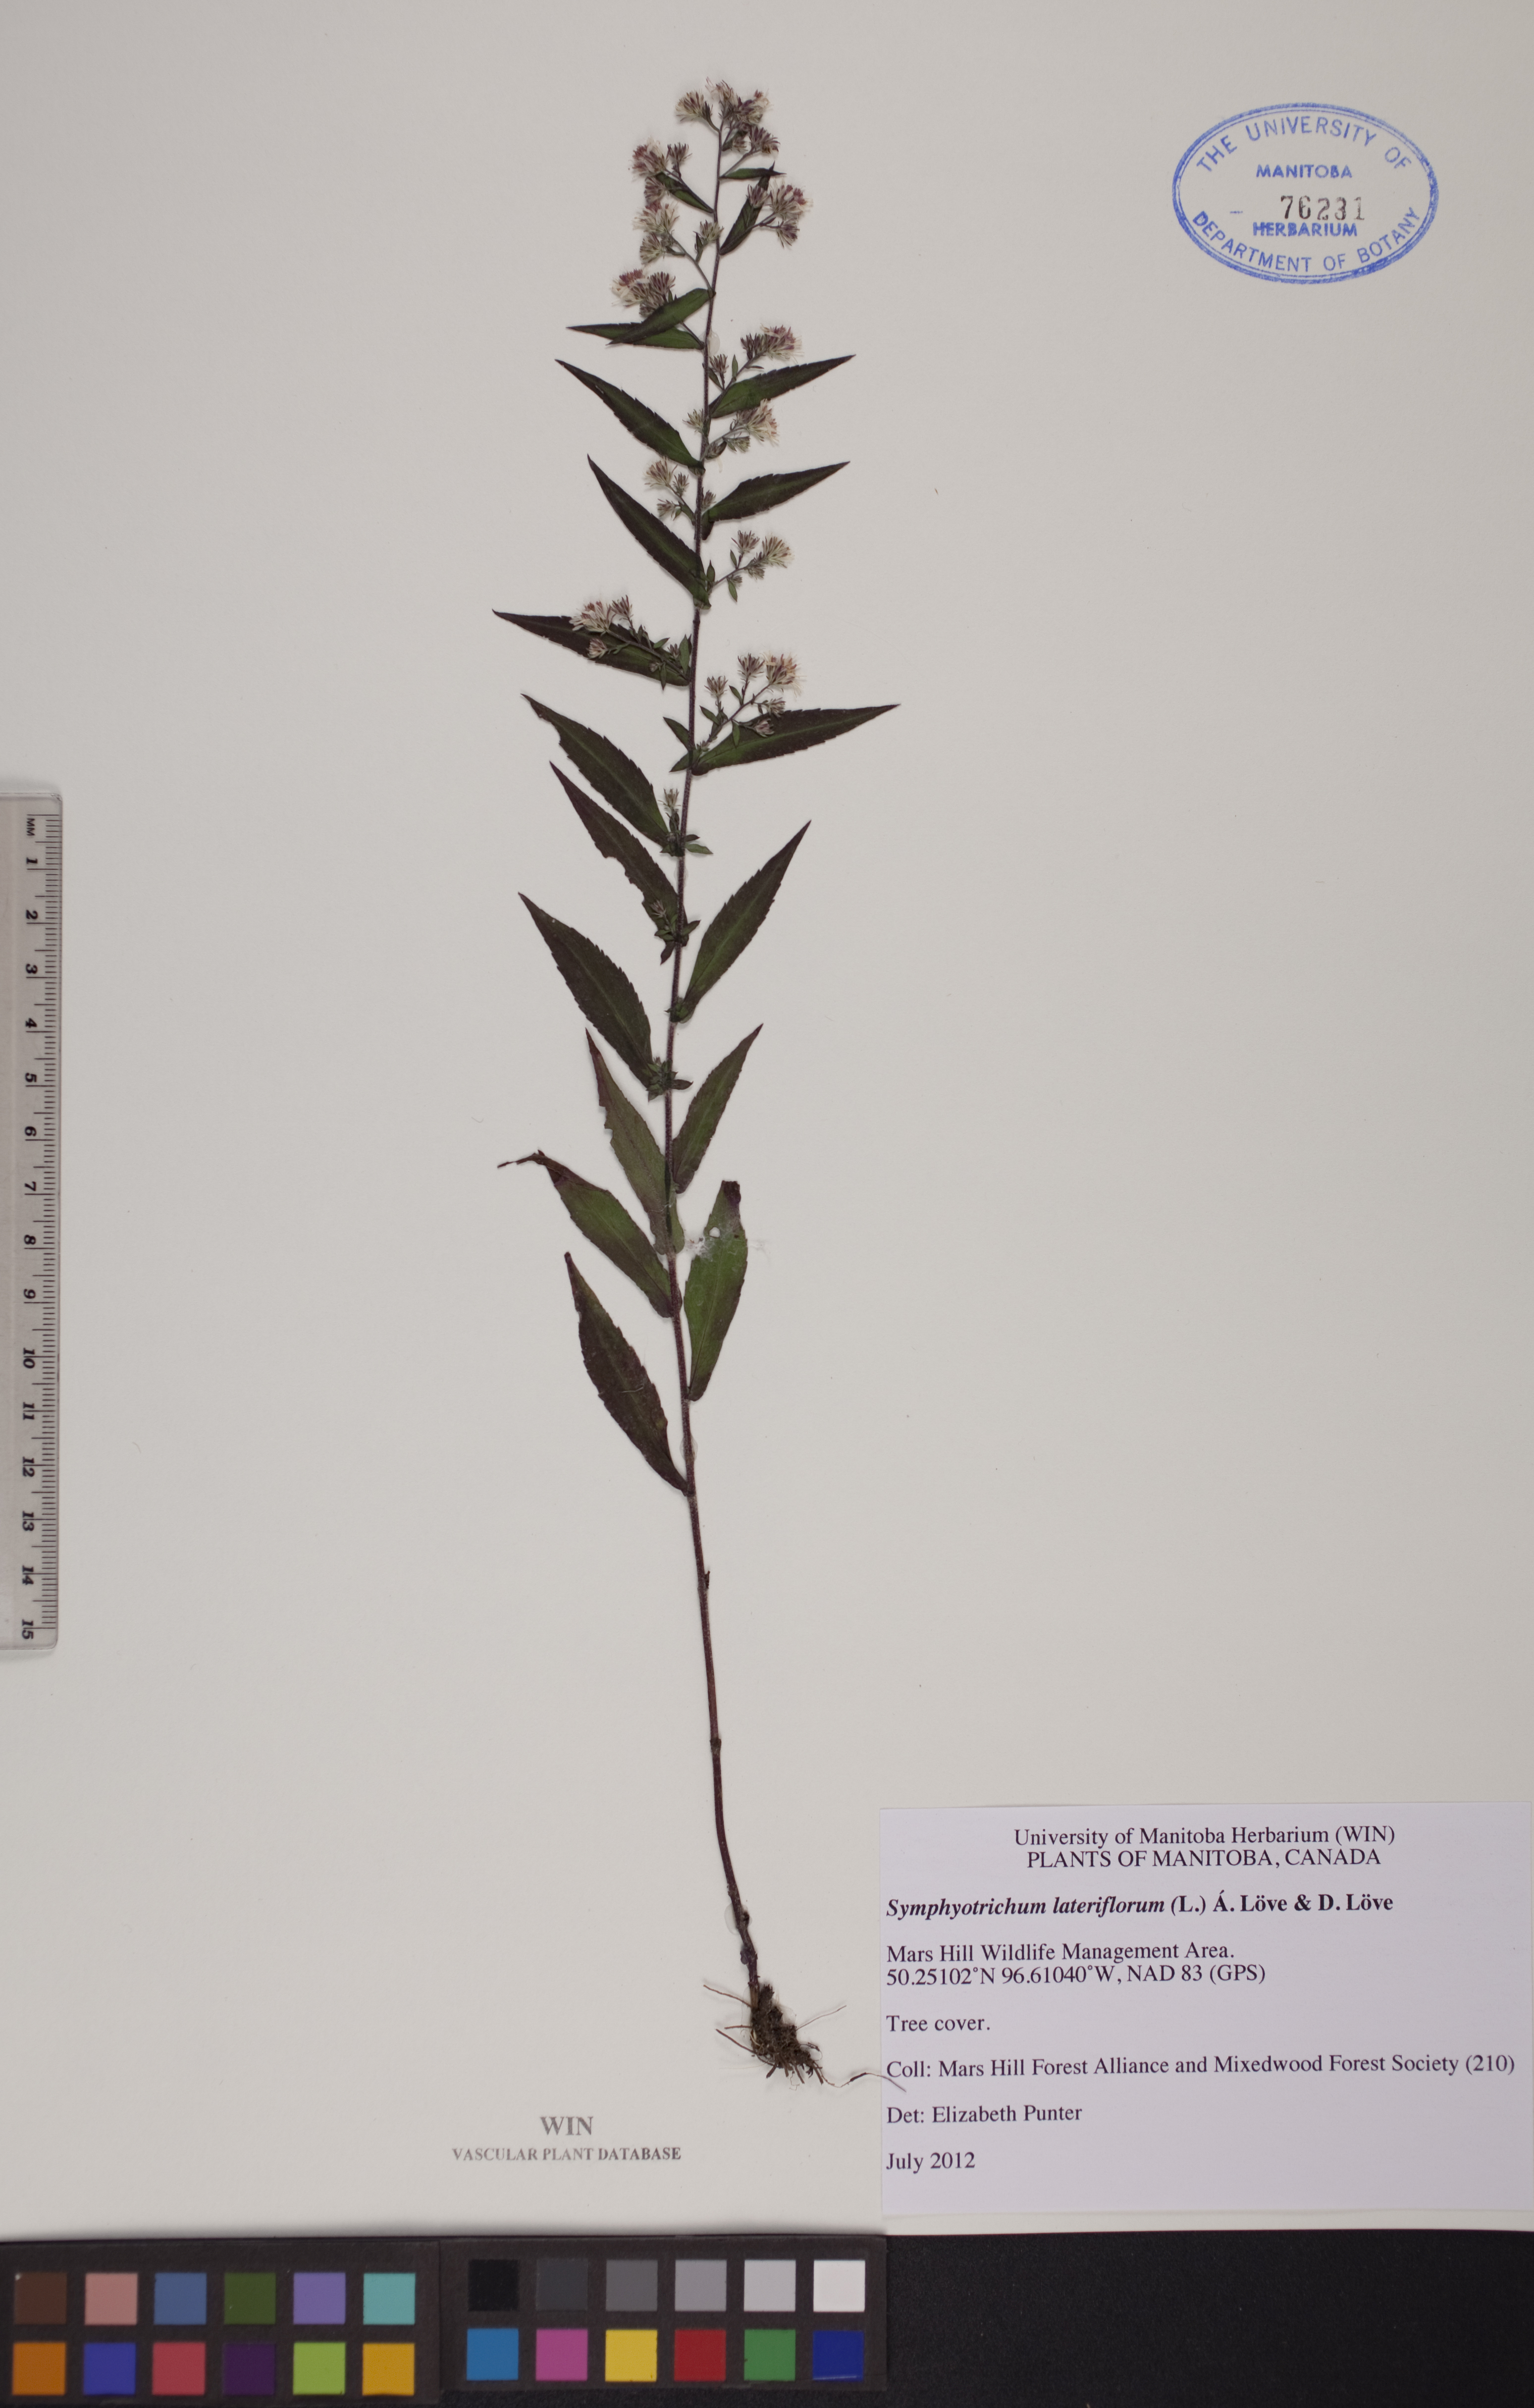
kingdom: Plantae
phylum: Tracheophyta
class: Magnoliopsida
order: Asterales
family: Asteraceae
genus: Symphyotrichum
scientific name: Symphyotrichum lateriflorum
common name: Calico aster
